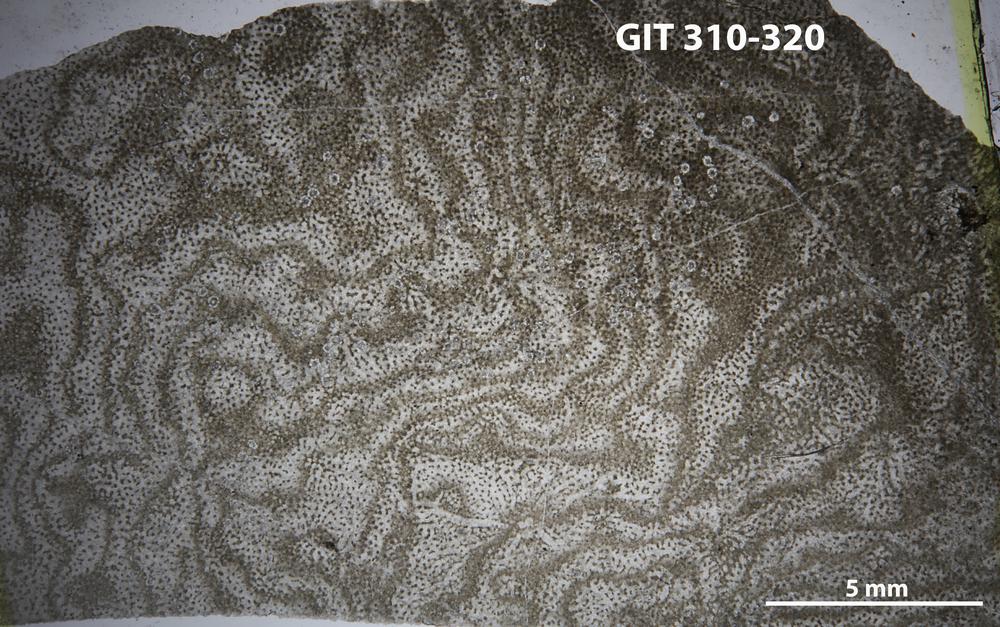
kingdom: Animalia
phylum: Porifera
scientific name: Porifera
